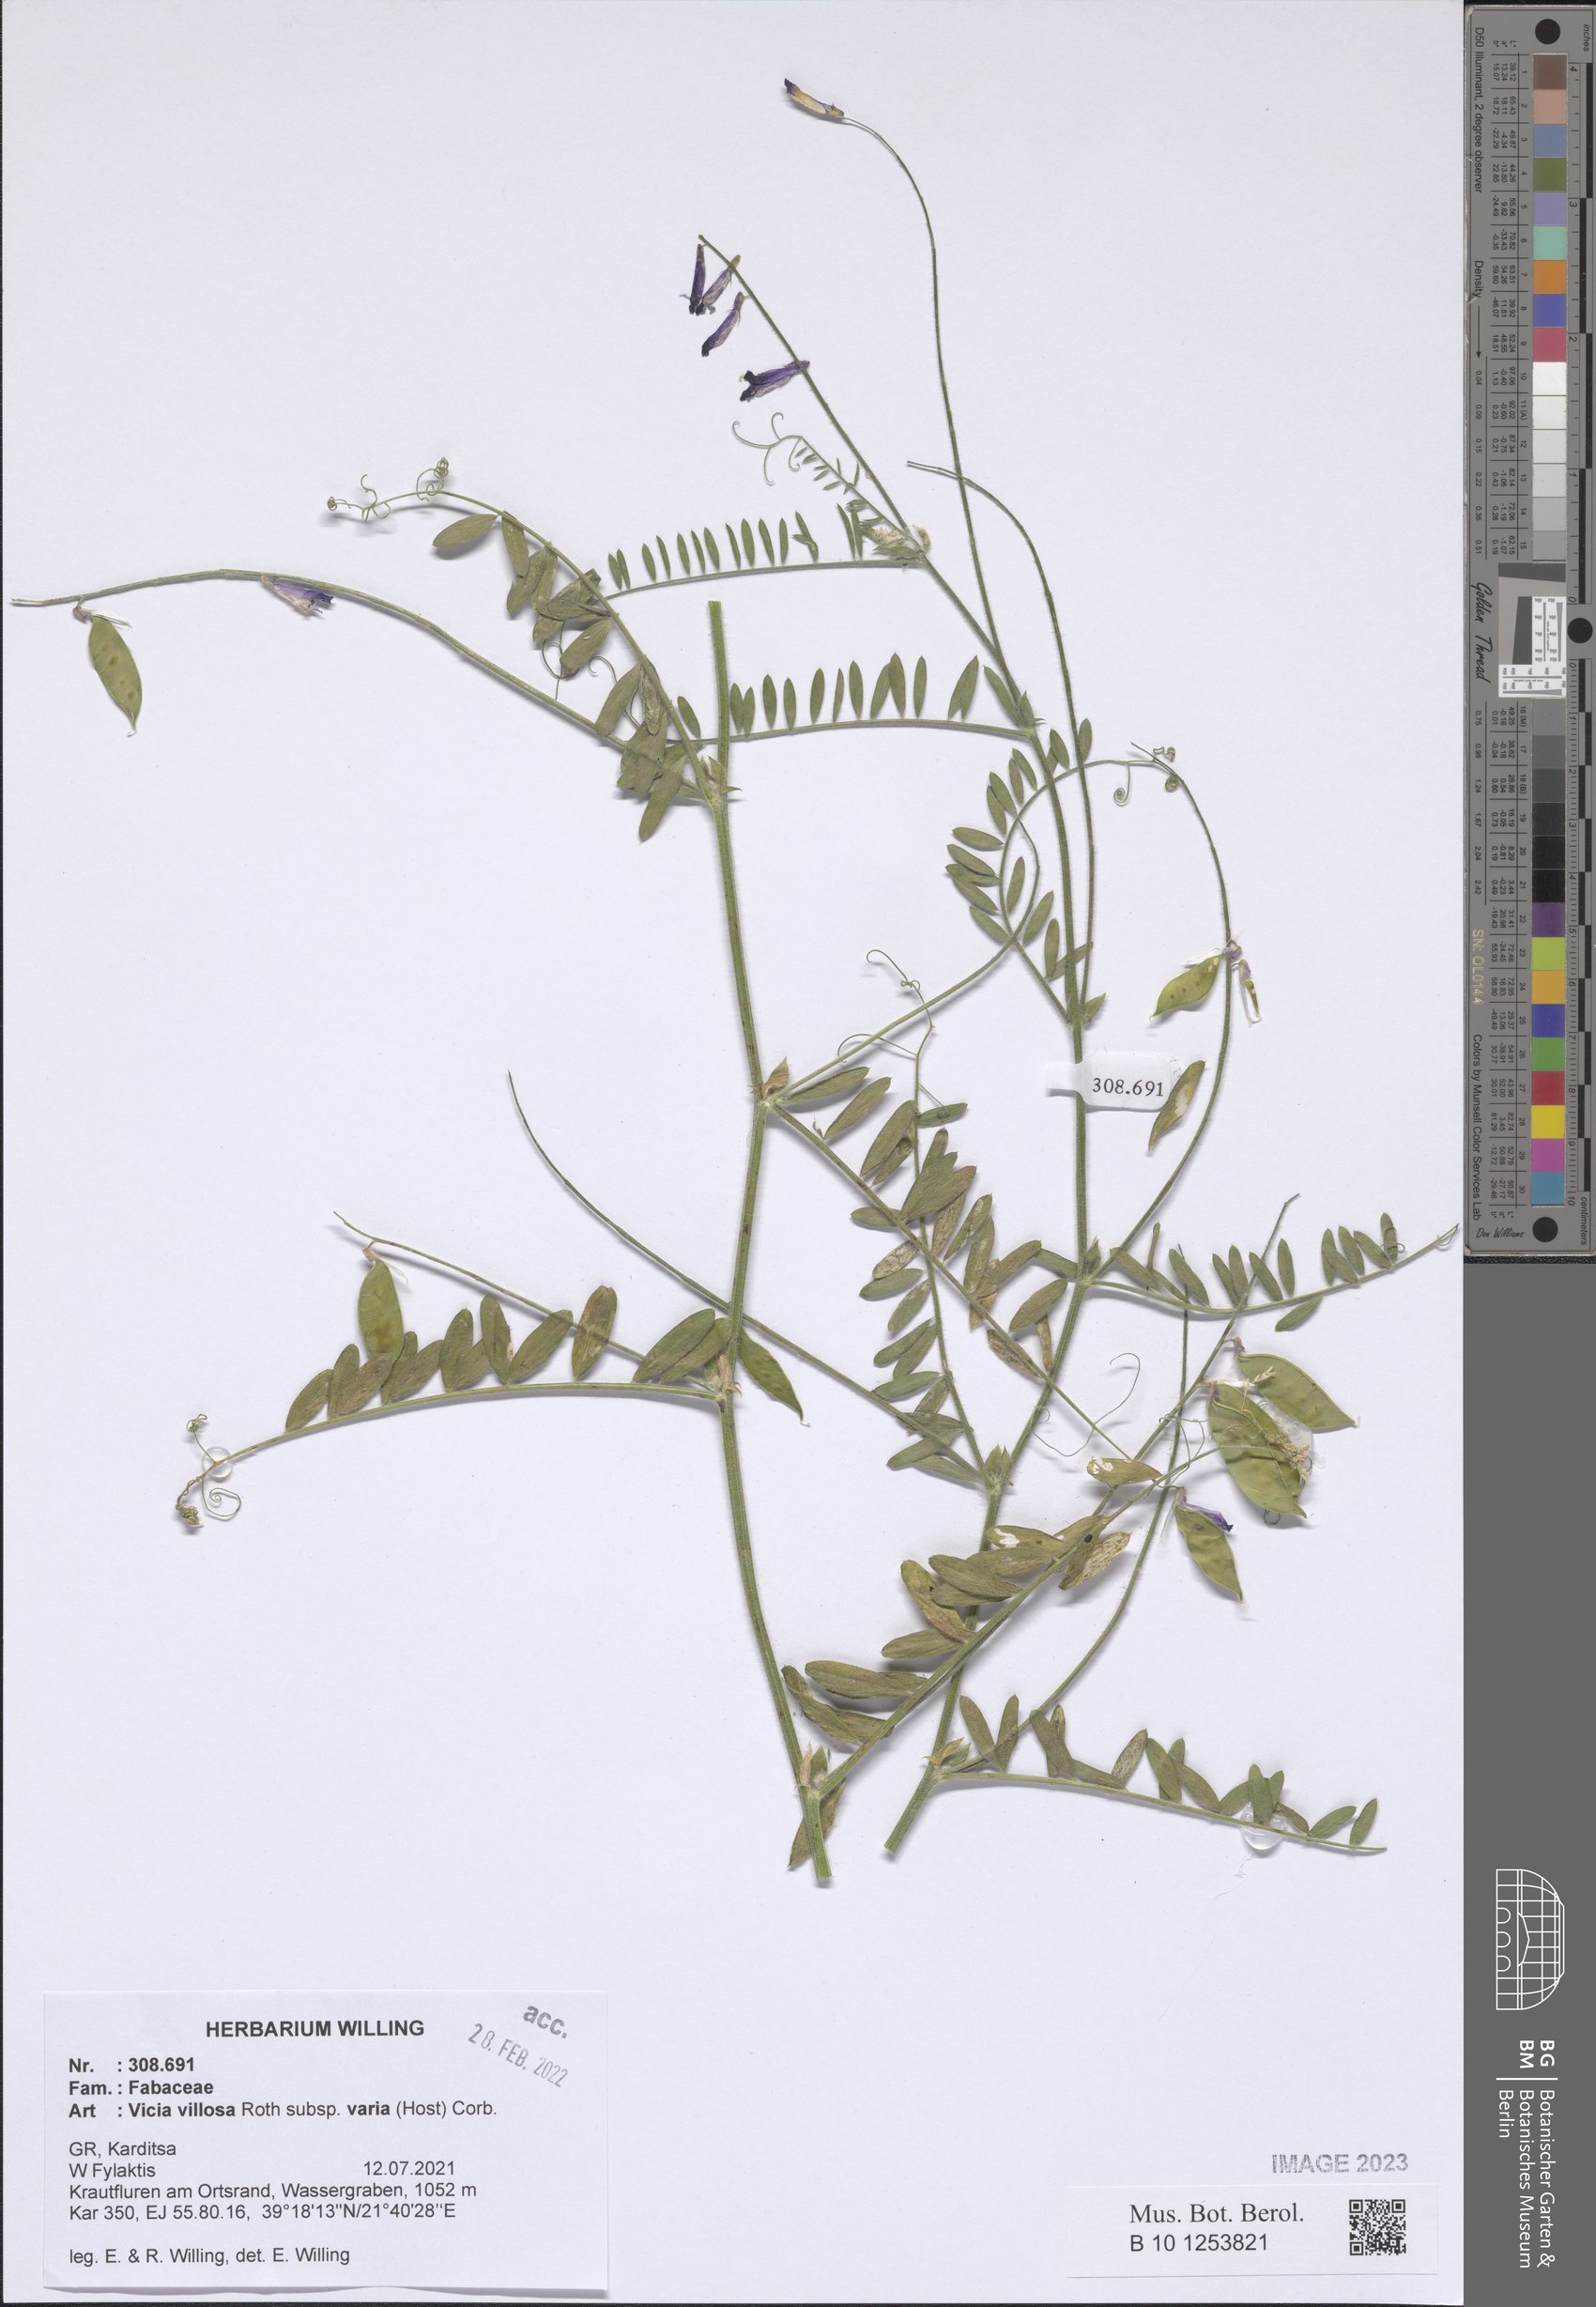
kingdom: Plantae
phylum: Tracheophyta
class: Magnoliopsida
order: Fabales
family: Fabaceae
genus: Vicia
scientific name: Vicia villosa
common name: Fodder vetch
